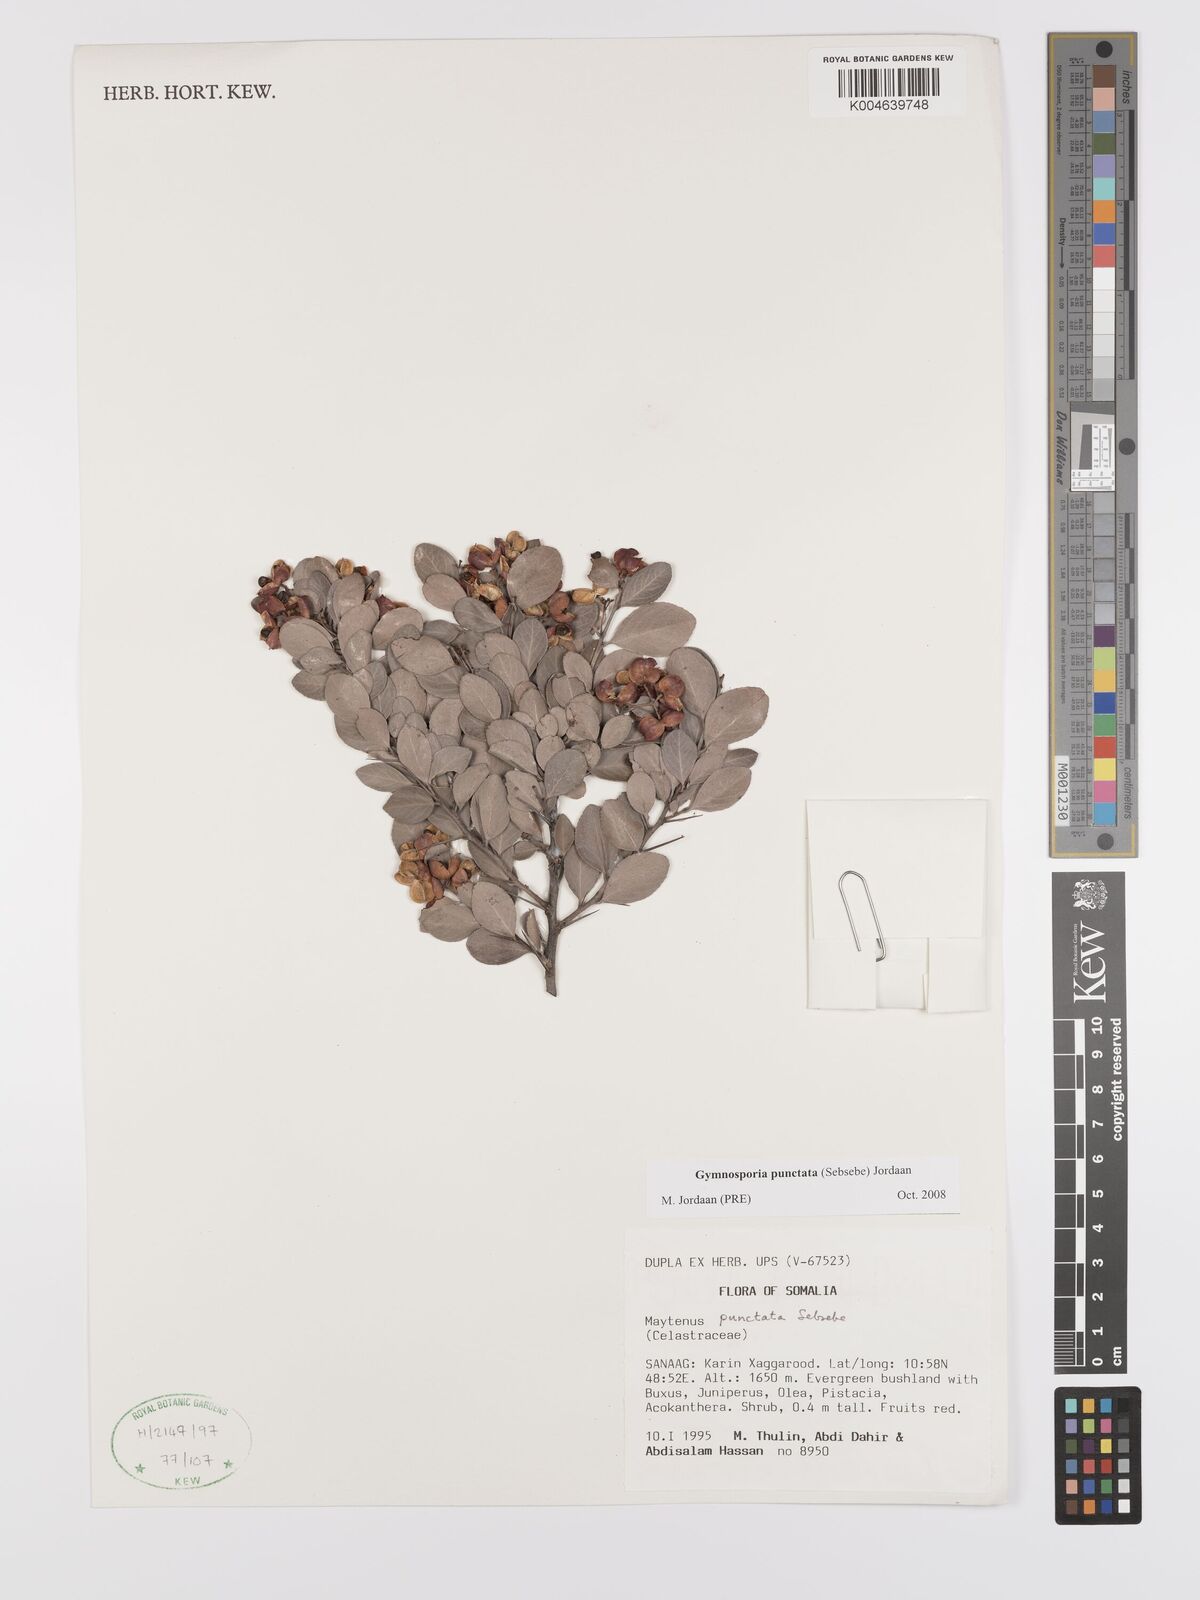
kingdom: Plantae
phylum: Tracheophyta
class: Magnoliopsida
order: Celastrales
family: Celastraceae
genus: Gymnosporia
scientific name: Gymnosporia punctata
